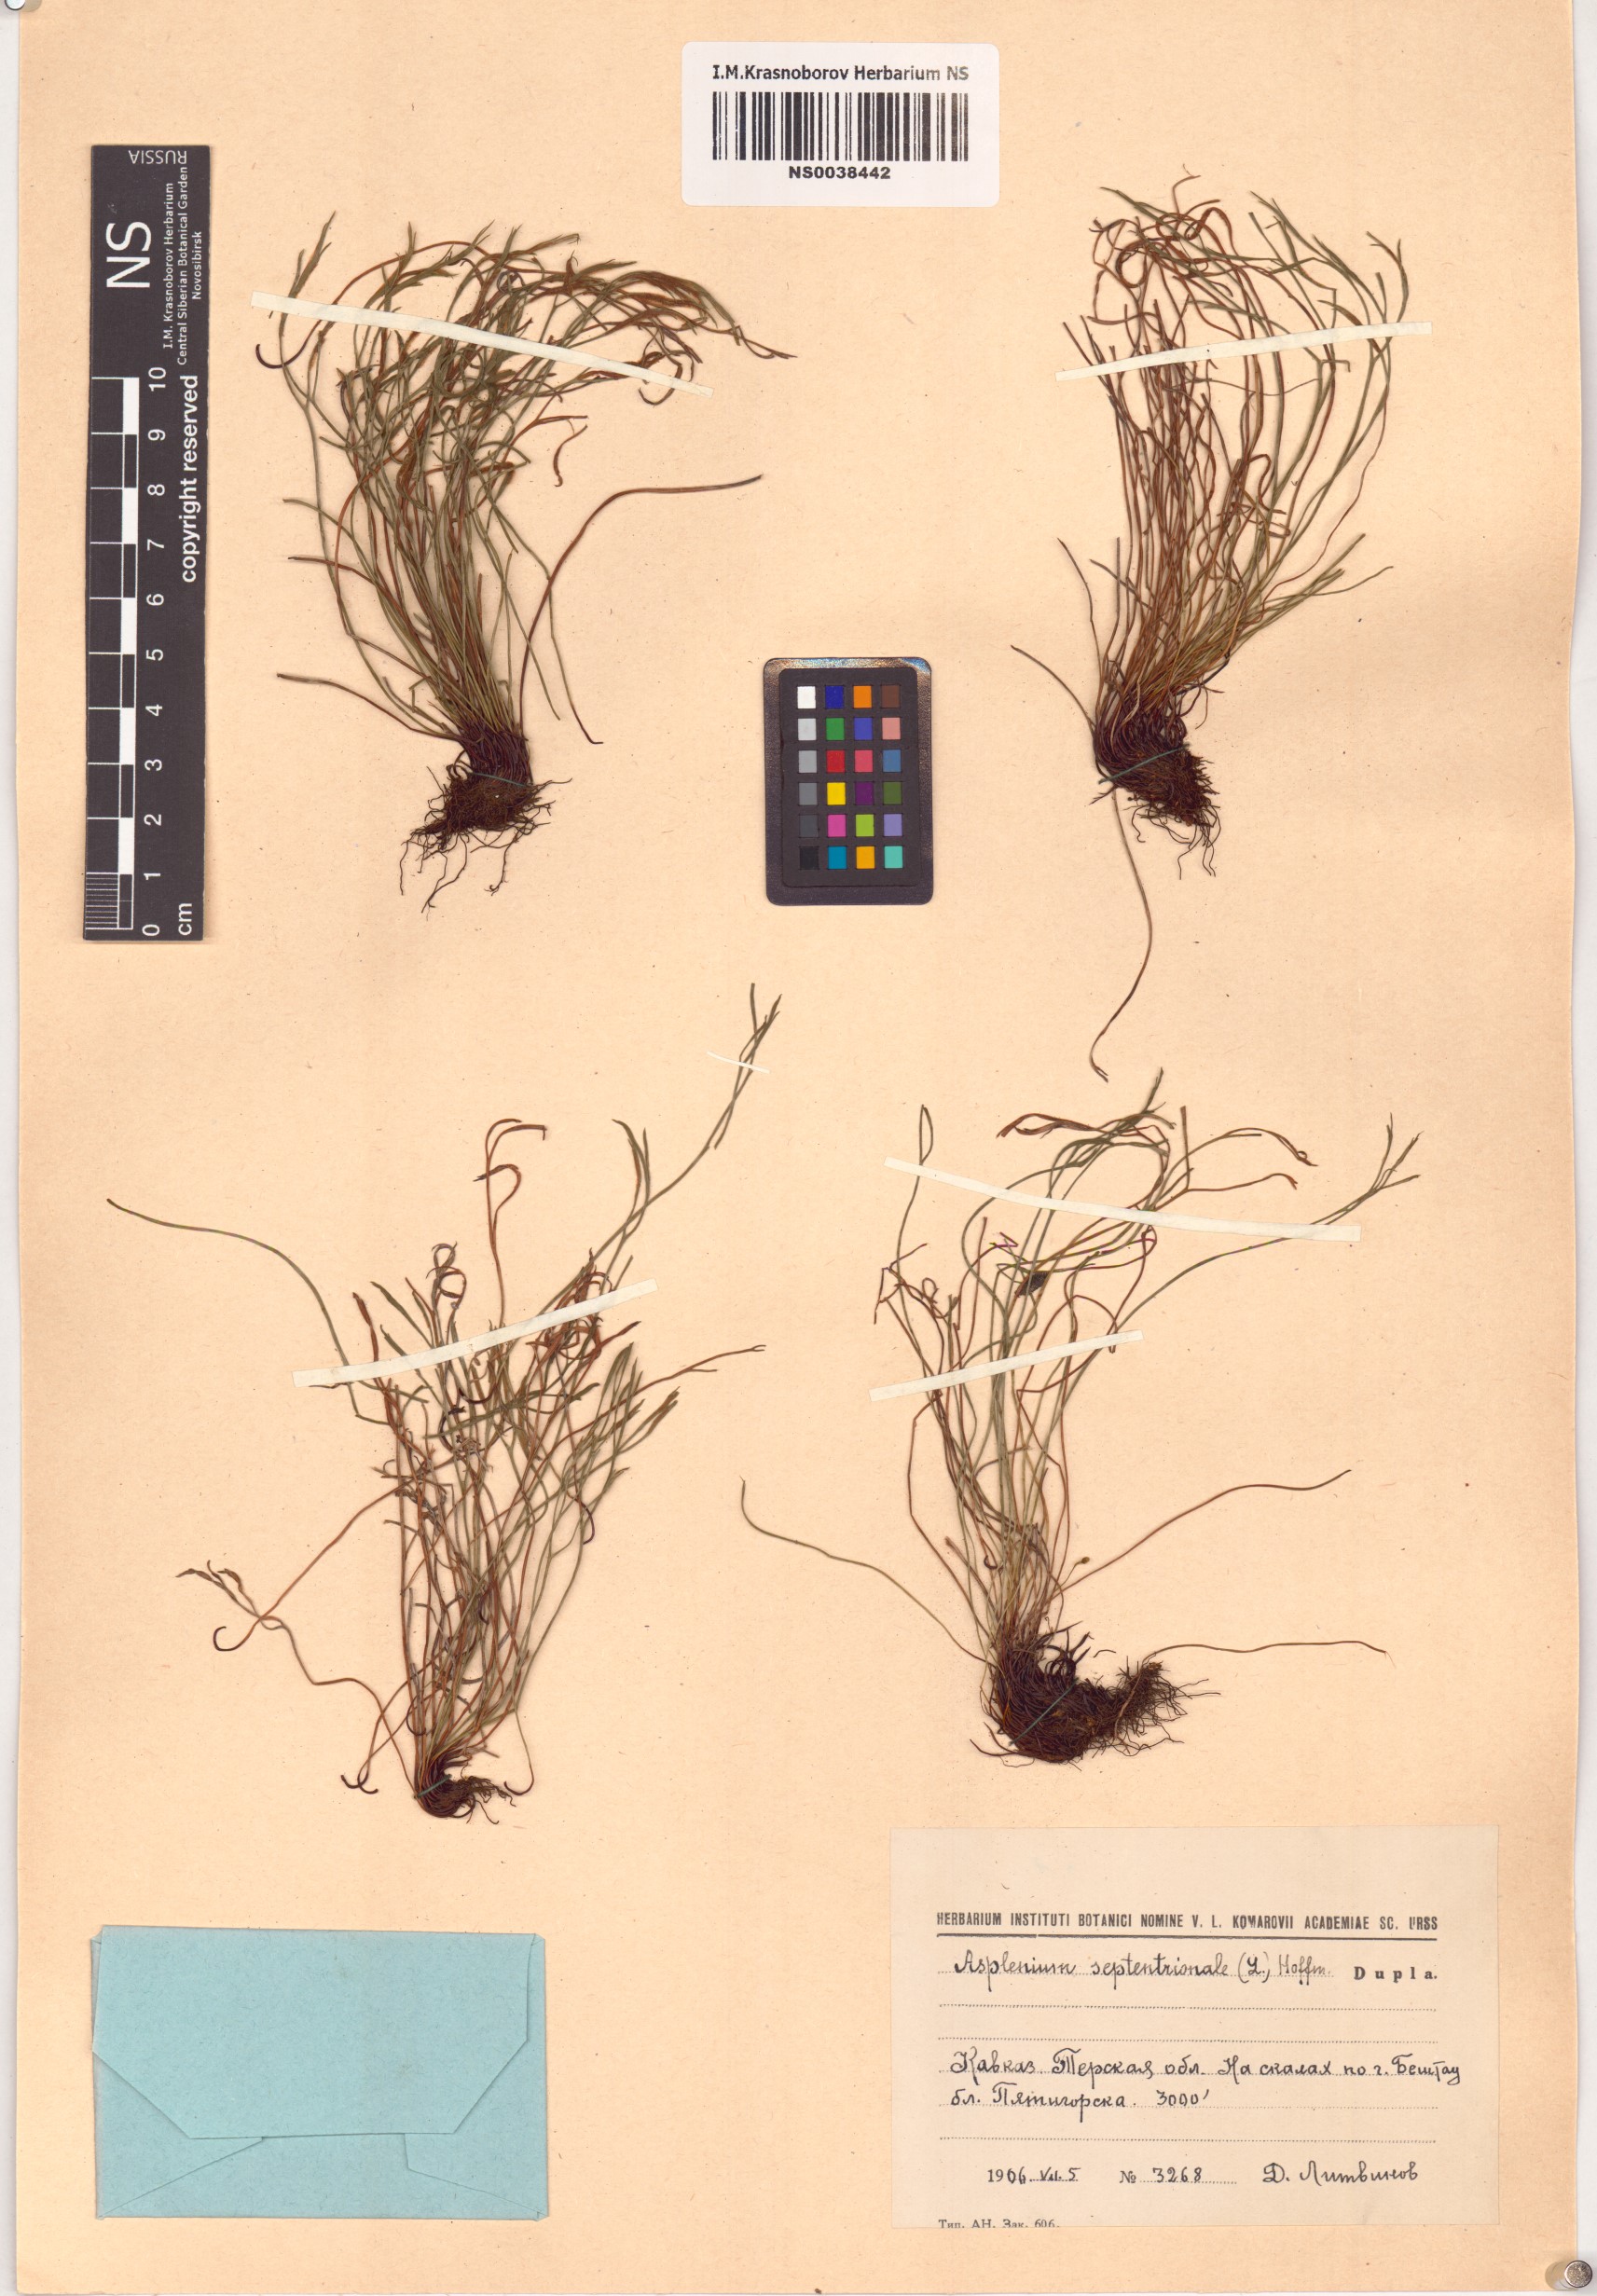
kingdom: Plantae
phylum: Tracheophyta
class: Polypodiopsida
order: Polypodiales
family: Aspleniaceae
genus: Asplenium
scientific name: Asplenium septentrionale
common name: Forked spleenwort
